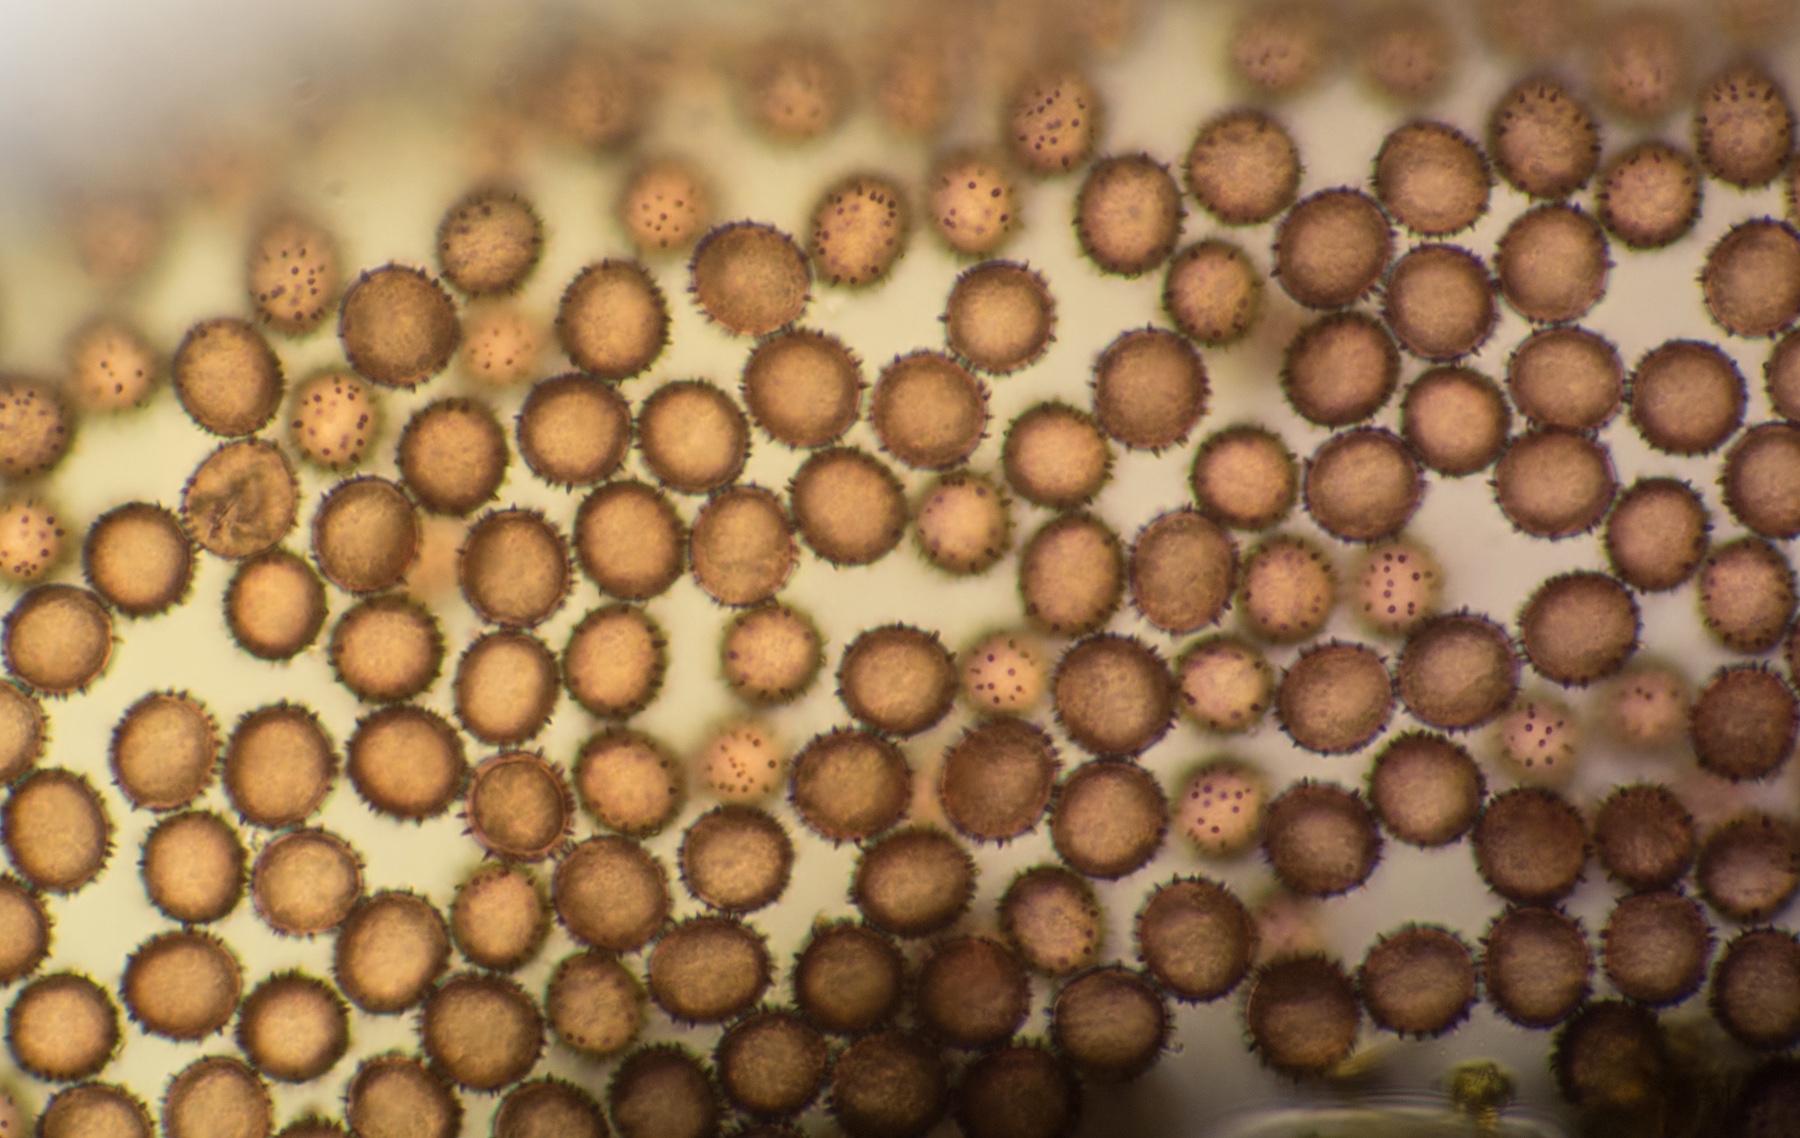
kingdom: Protozoa
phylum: Mycetozoa
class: Myxomycetes
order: Physarales
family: Physaraceae
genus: Physarum
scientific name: Physarum schroeteri
